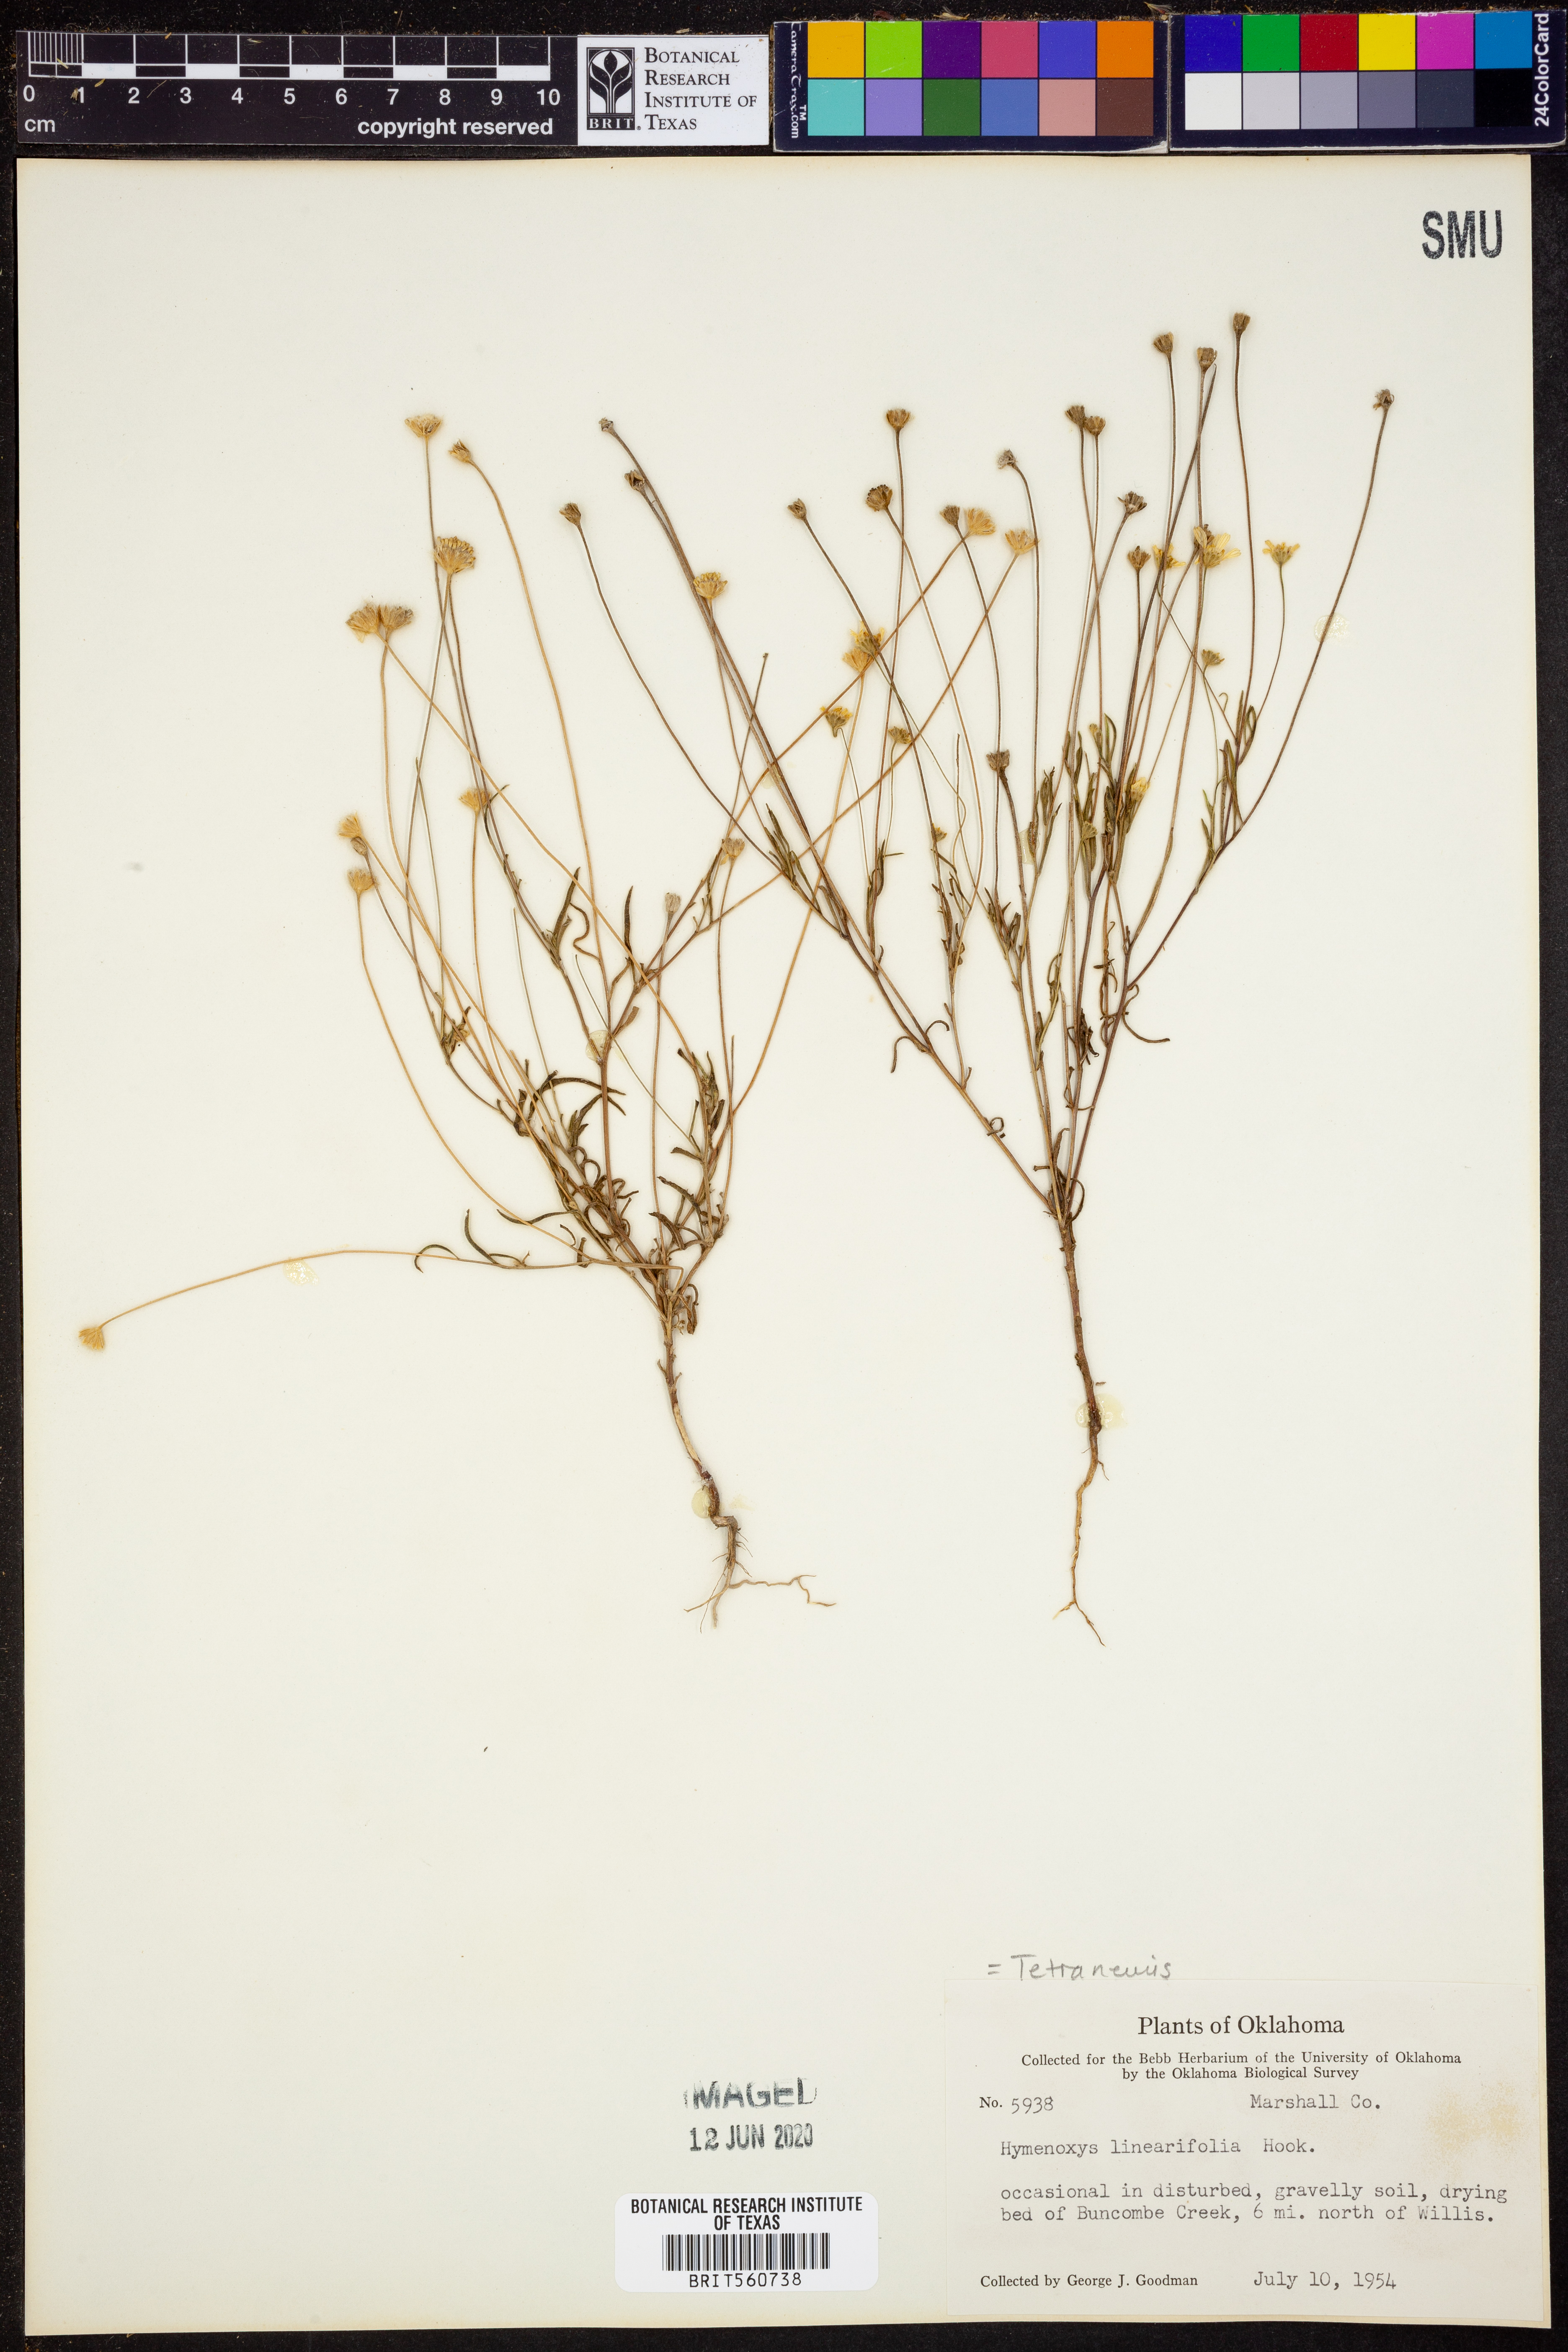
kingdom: Plantae
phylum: Tracheophyta
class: Magnoliopsida
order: Asterales
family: Asteraceae
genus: Tetraneuris
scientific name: Tetraneuris linearifolia
